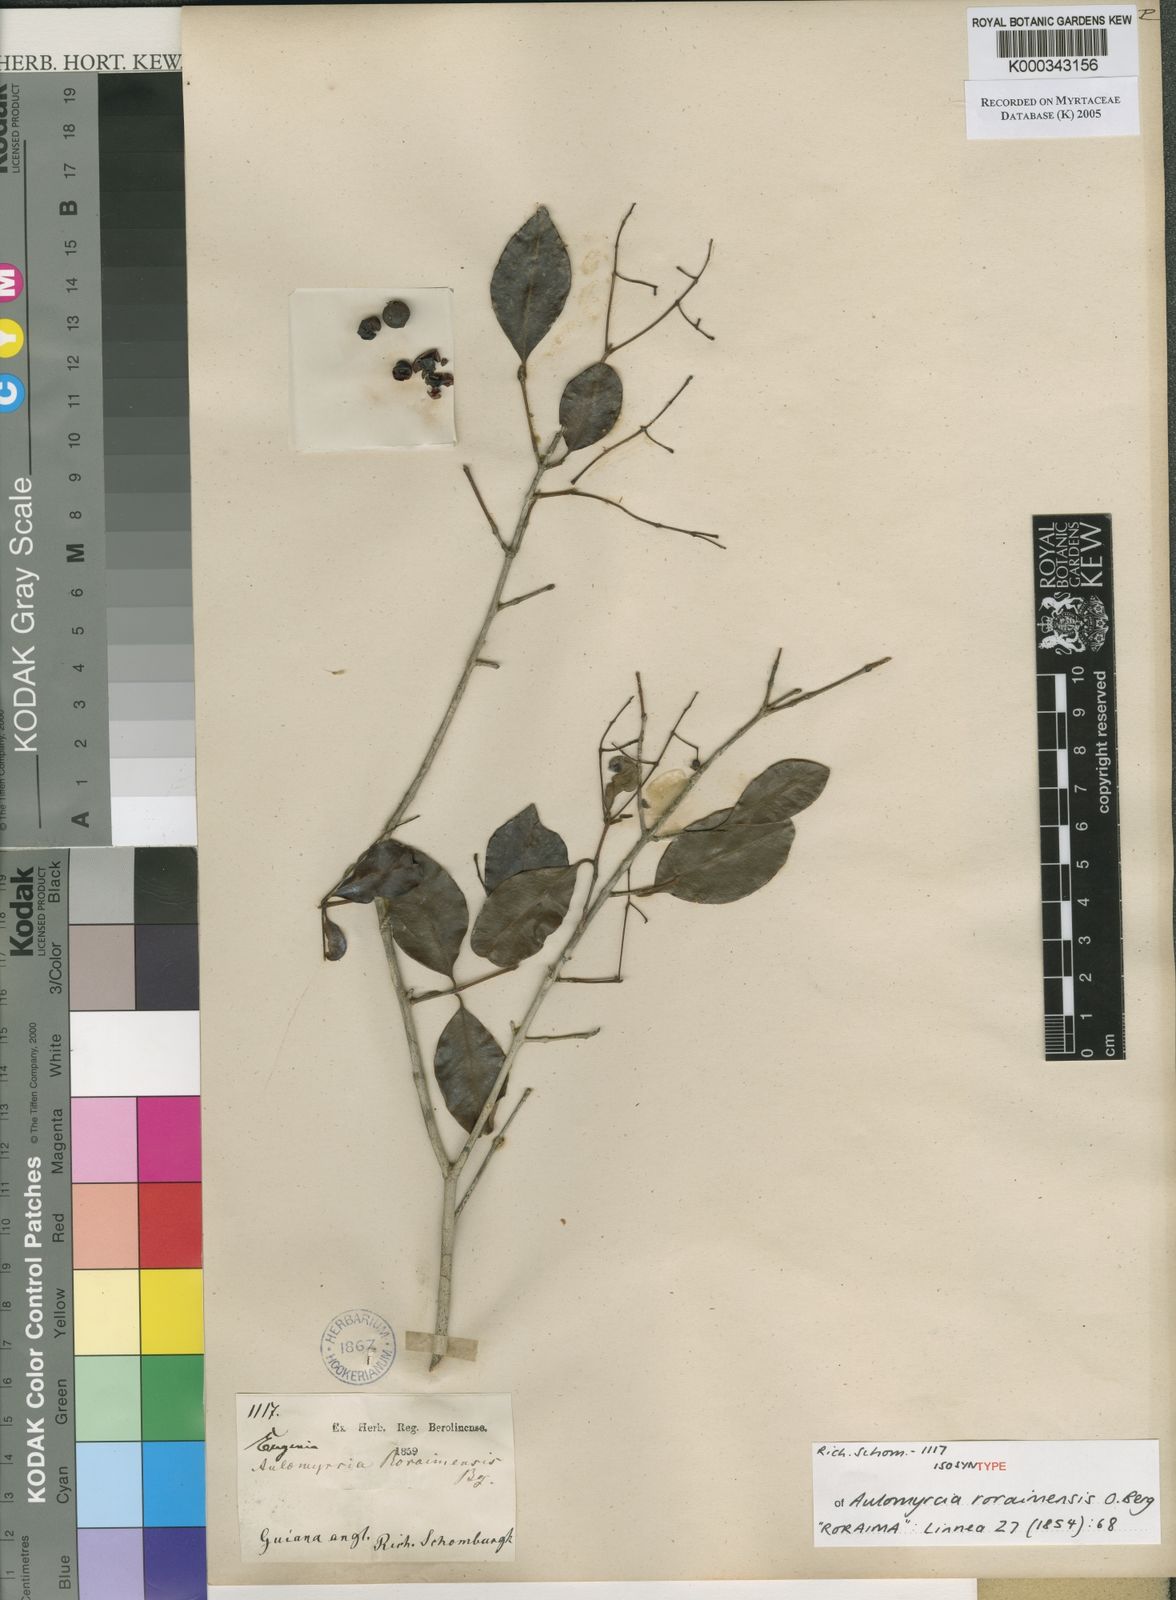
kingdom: Plantae
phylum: Tracheophyta
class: Magnoliopsida
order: Myrtales
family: Myrtaceae
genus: Myrcia
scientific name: Myrcia guianensis
